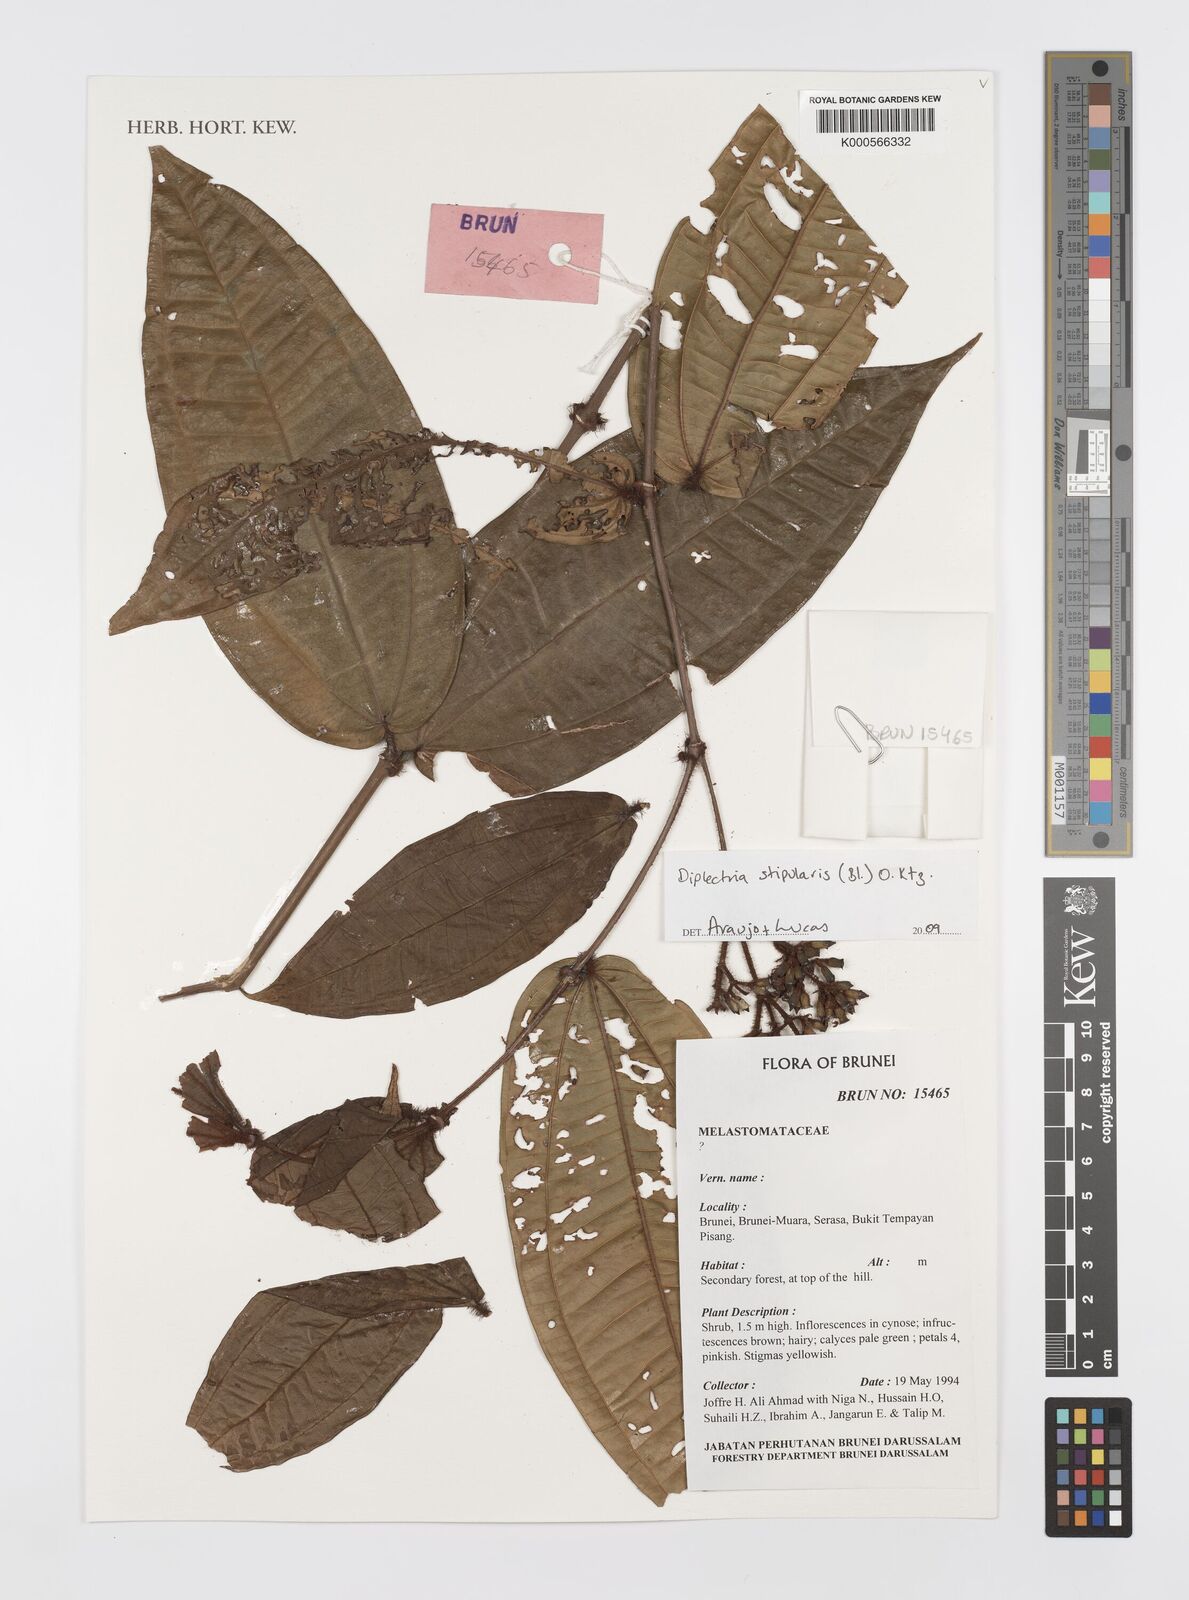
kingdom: Plantae
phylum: Tracheophyta
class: Magnoliopsida
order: Myrtales
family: Melastomataceae
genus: Dissochaeta
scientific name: Dissochaeta
